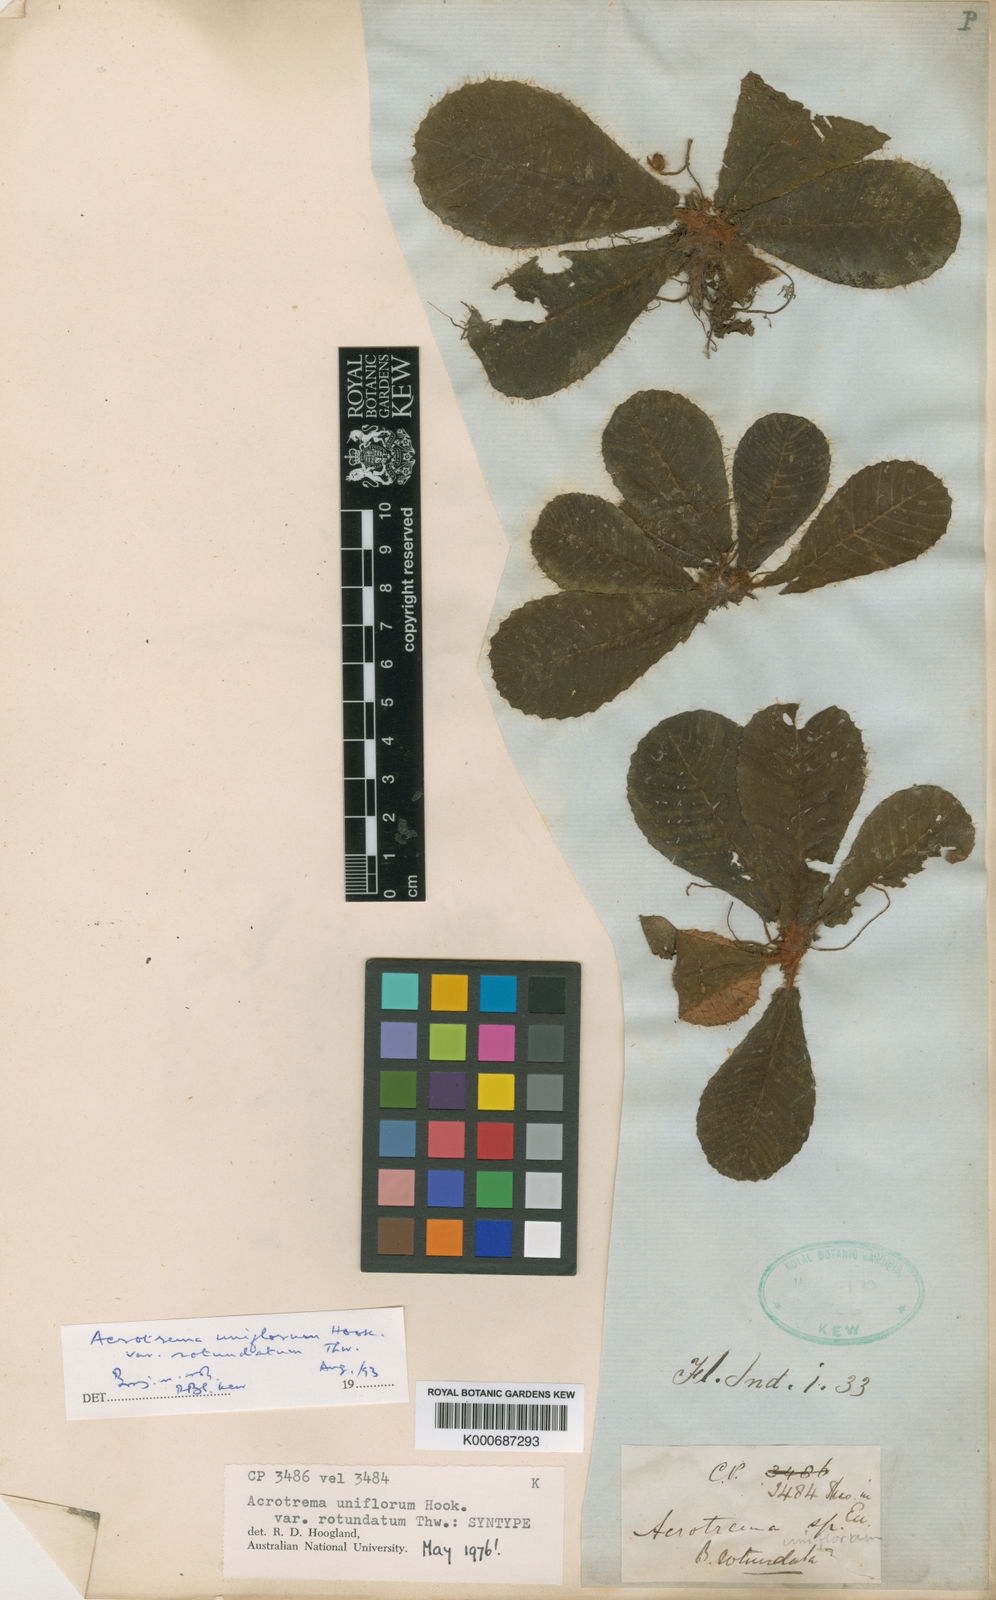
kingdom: Plantae
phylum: Tracheophyta
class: Magnoliopsida
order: Dilleniales
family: Dilleniaceae
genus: Acrotrema
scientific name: Acrotrema uniflorum
